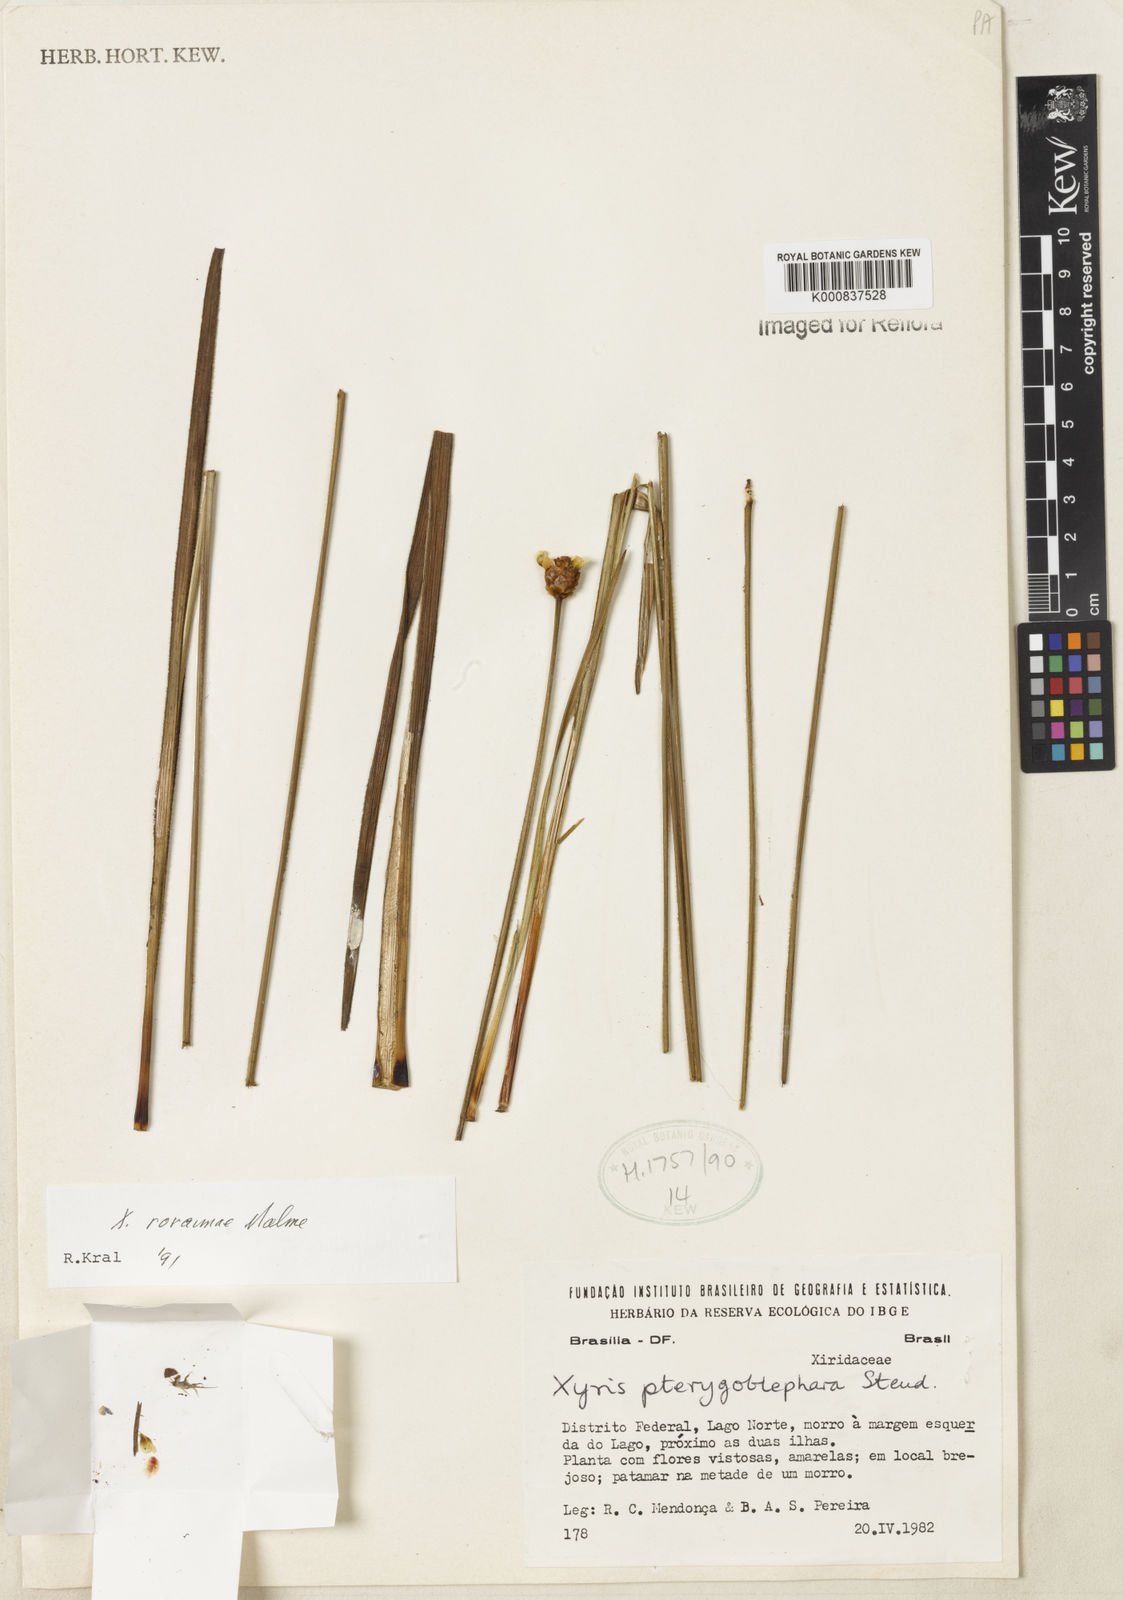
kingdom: Plantae
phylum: Tracheophyta
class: Liliopsida
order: Poales
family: Xyridaceae
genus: Xyris
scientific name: Xyris roraimae
